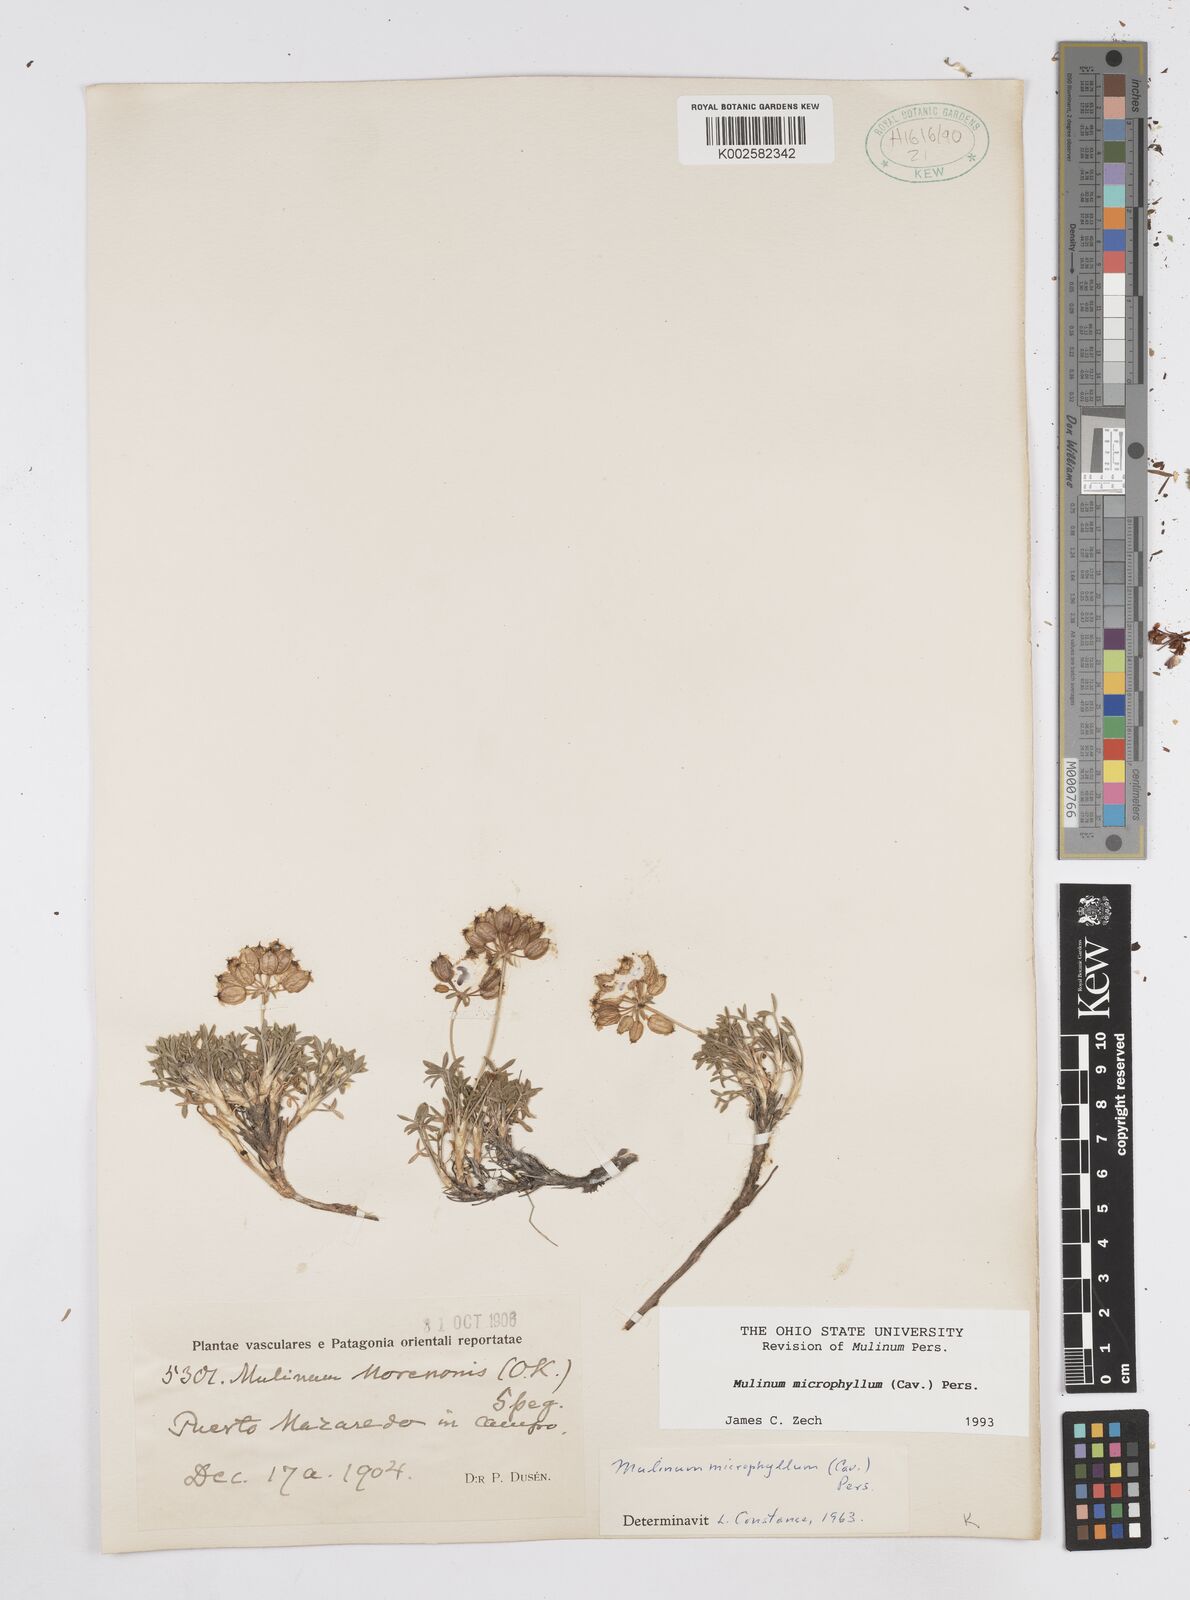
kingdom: Plantae
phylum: Tracheophyta
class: Magnoliopsida
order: Apiales
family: Apiaceae
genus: Azorella
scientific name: Azorella microphylla
